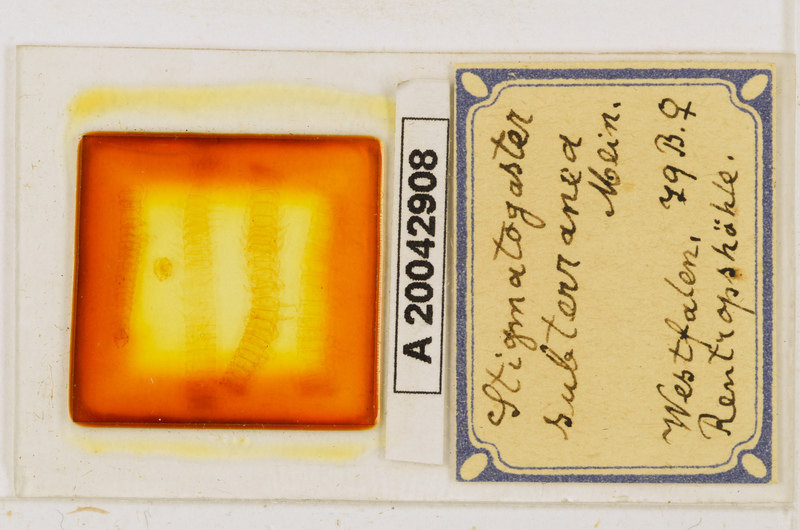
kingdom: Animalia
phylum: Arthropoda
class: Chilopoda
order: Geophilomorpha
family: Himantariidae
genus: Stigmatogaster
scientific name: Stigmatogaster subterranea
